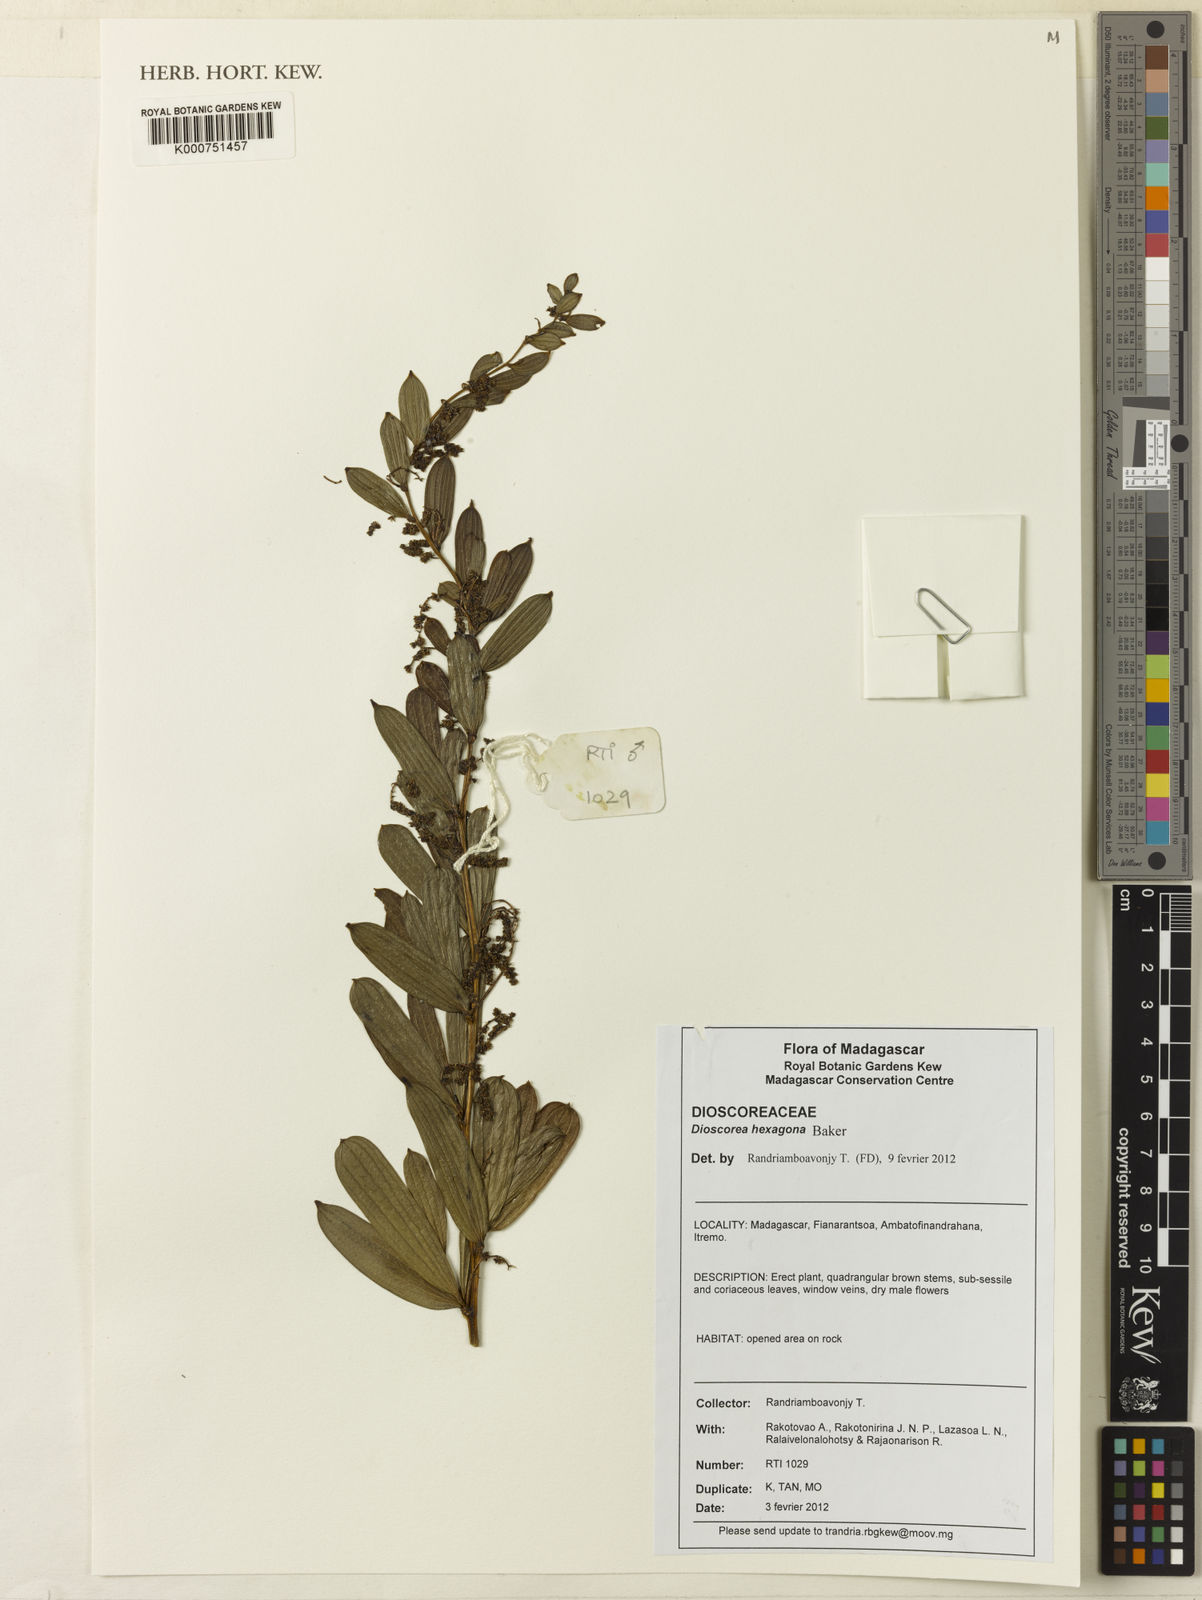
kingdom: Plantae
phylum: Tracheophyta
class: Liliopsida
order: Dioscoreales
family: Dioscoreaceae
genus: Dioscorea
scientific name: Dioscorea hexagona
